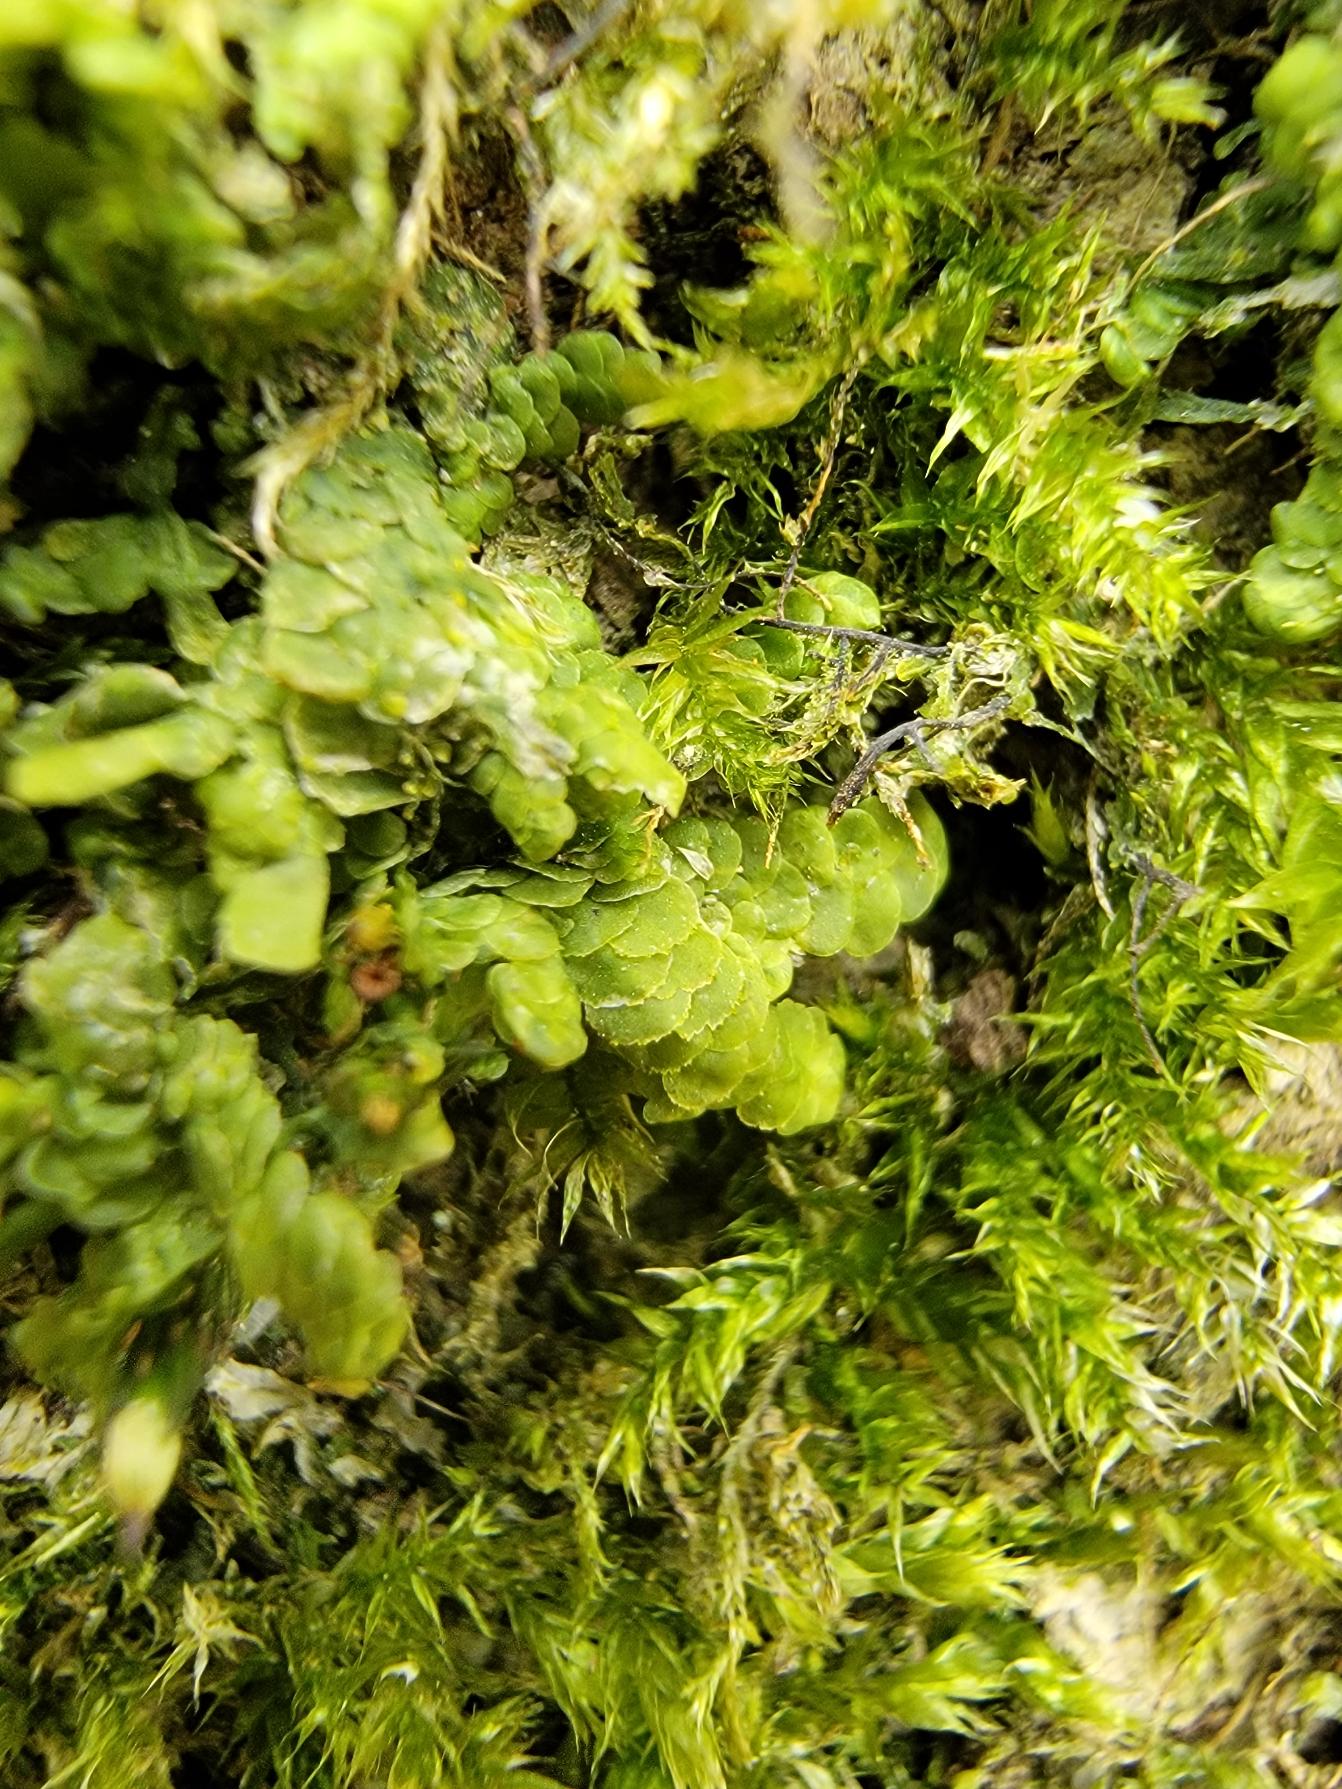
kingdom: Plantae
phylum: Marchantiophyta
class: Jungermanniopsida
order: Porellales
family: Radulaceae
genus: Radula
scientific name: Radula complanata
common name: Almindelig spartelmos
